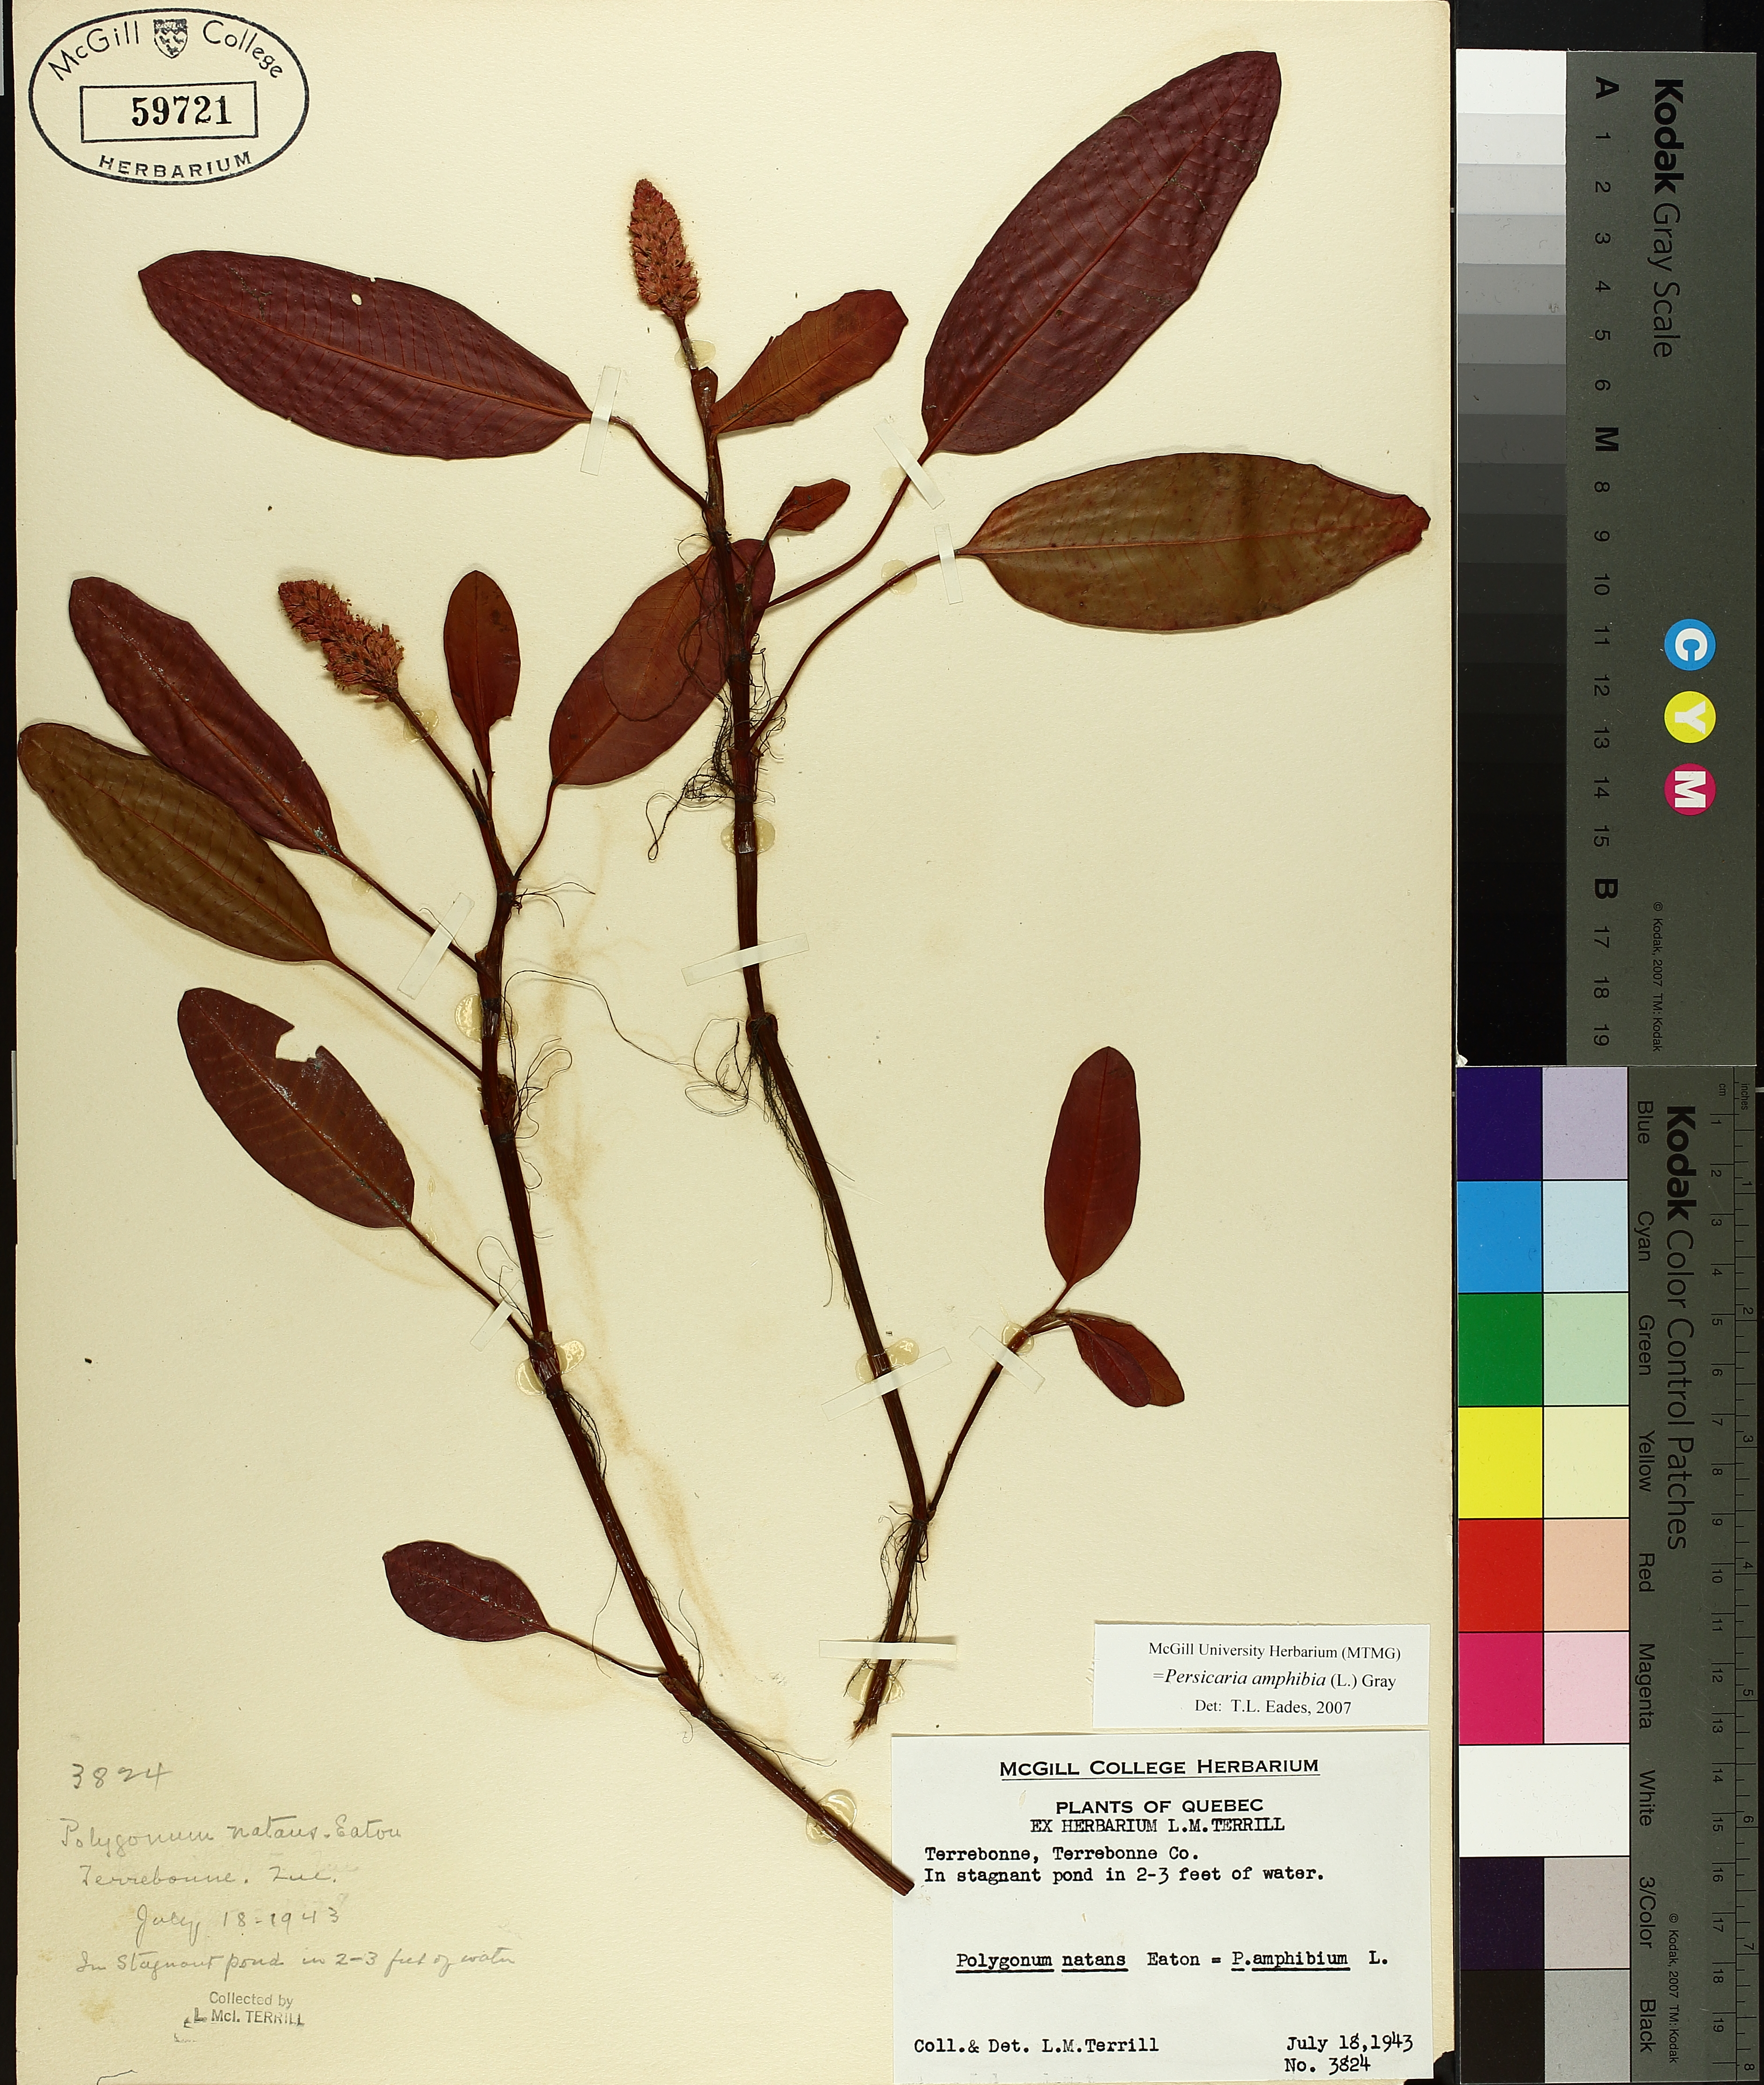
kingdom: Plantae
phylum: Tracheophyta
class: Magnoliopsida
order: Caryophyllales
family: Polygonaceae
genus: Persicaria
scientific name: Persicaria amphibia
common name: Amphibious bistort
